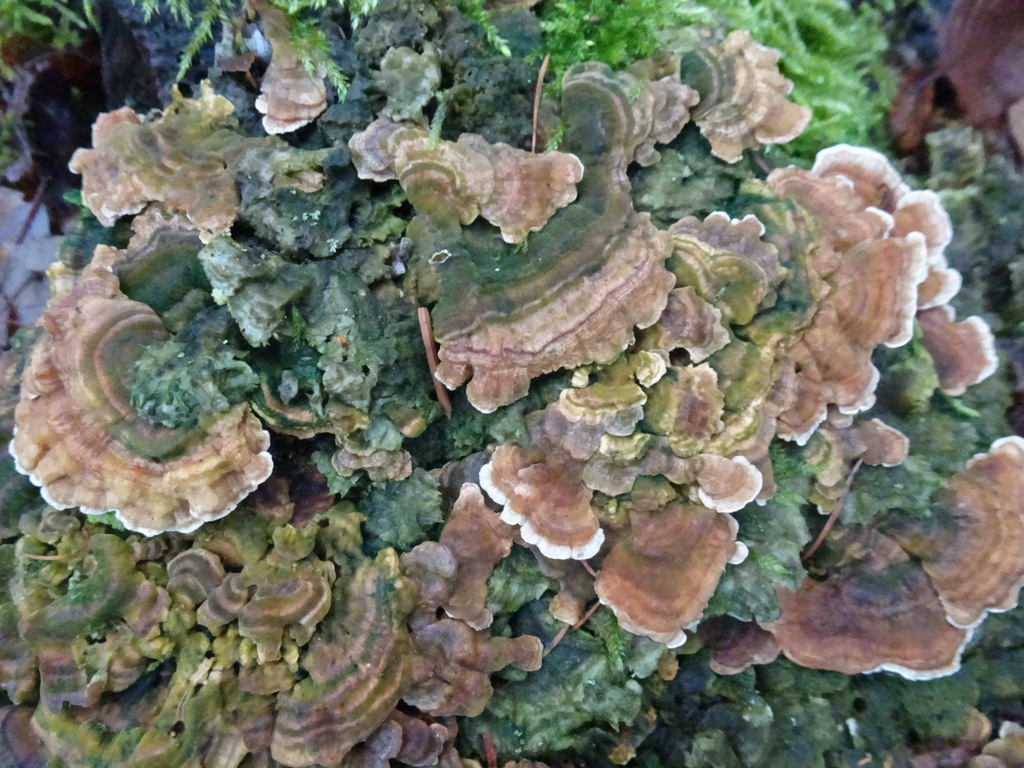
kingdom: Fungi
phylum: Basidiomycota
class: Agaricomycetes
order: Polyporales
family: Polyporaceae
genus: Trametes
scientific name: Trametes ochracea
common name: bæltet læderporesvamp
